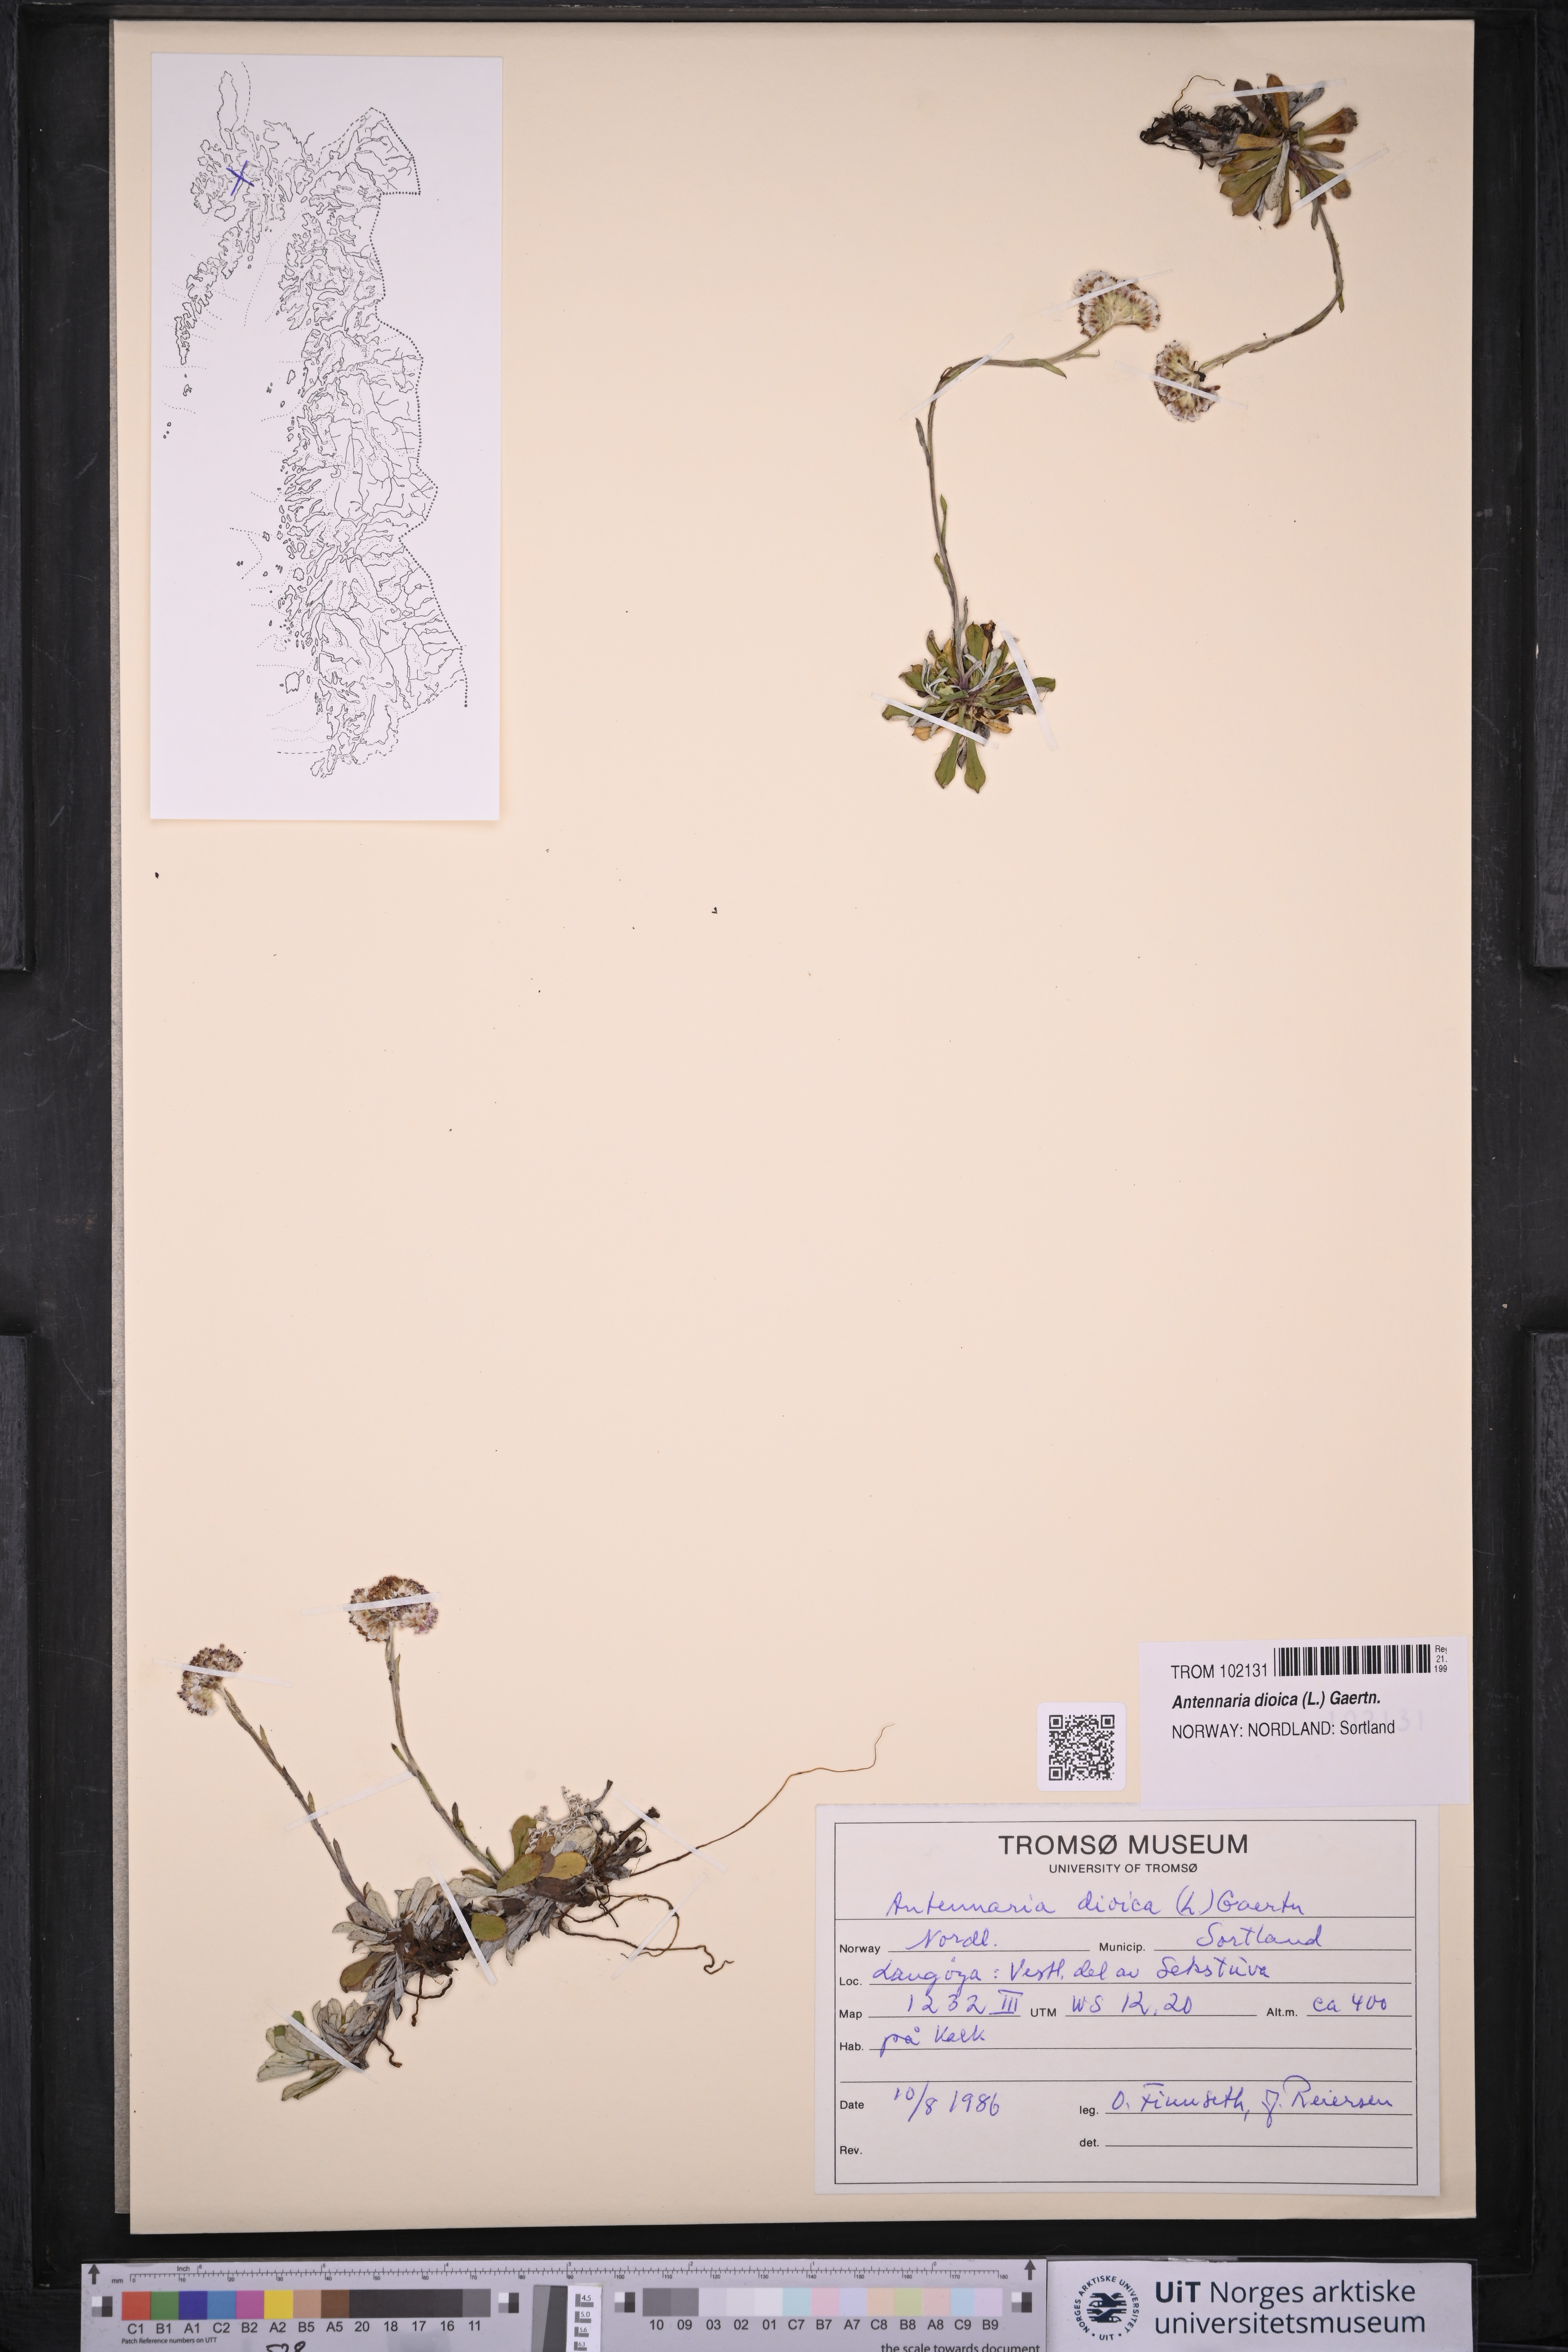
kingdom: Plantae
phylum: Tracheophyta
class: Magnoliopsida
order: Asterales
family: Asteraceae
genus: Antennaria
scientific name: Antennaria dioica
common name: Mountain everlasting
